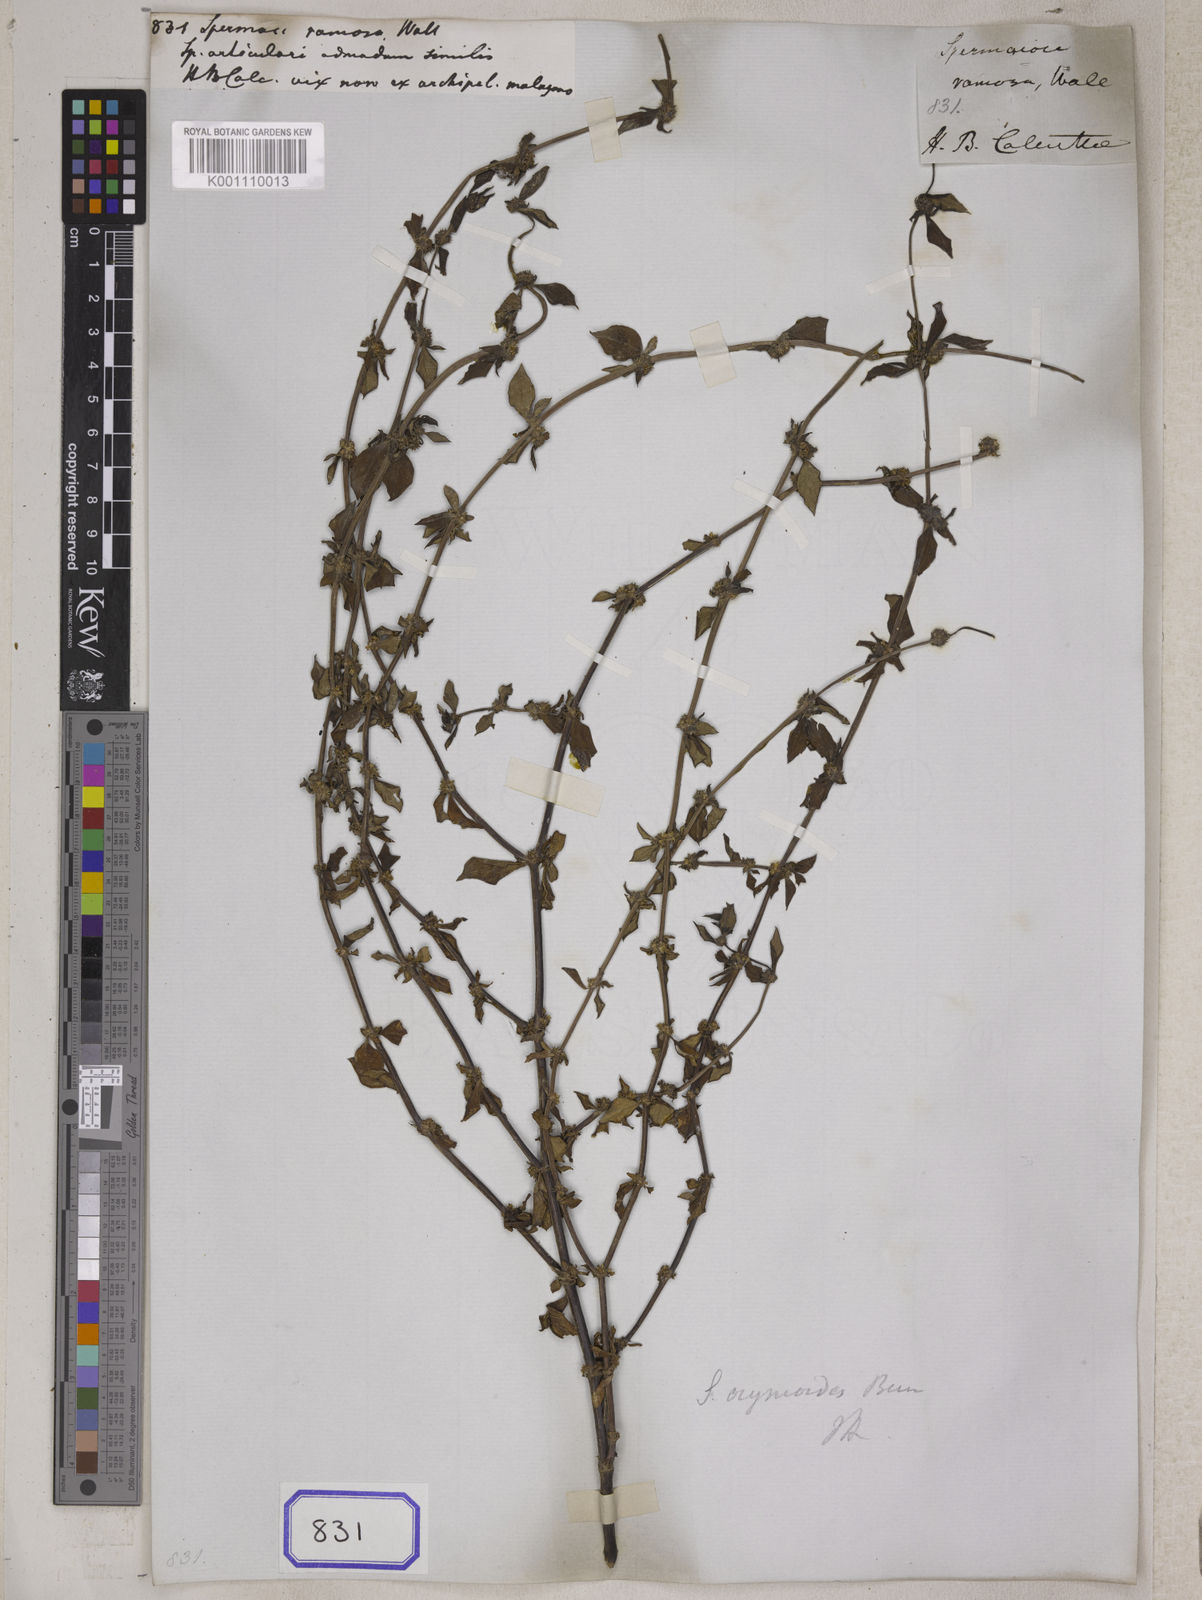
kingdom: Plantae
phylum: Tracheophyta
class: Magnoliopsida
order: Gentianales
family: Rubiaceae
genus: Spermacoce
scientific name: Spermacoce ocymoides
